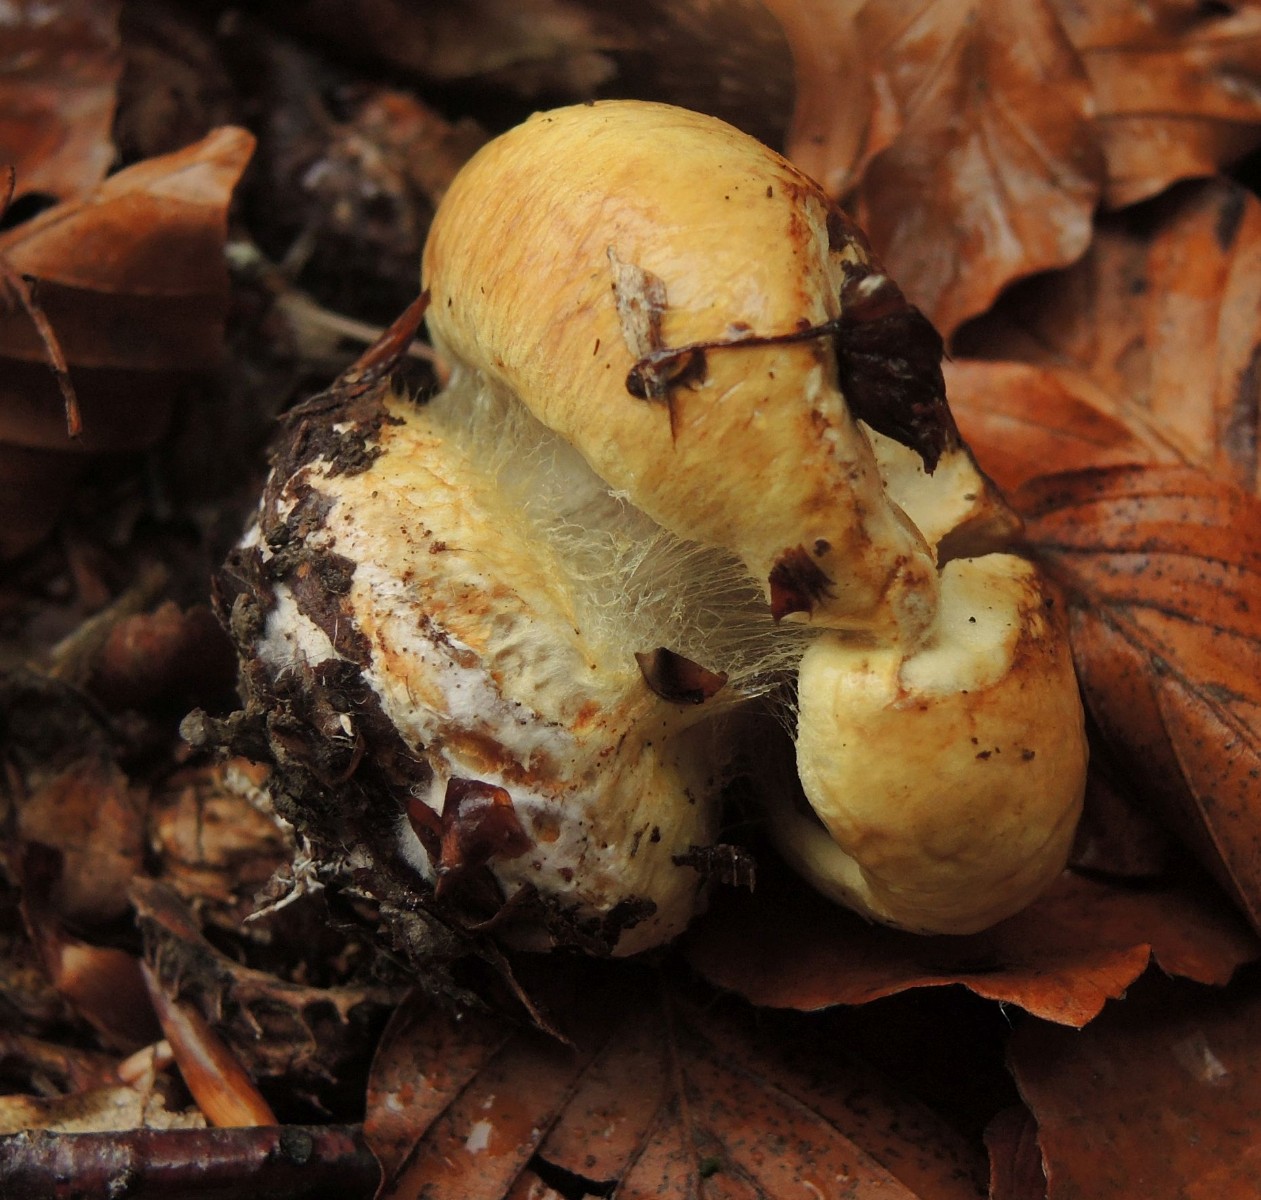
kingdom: Fungi
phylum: Basidiomycota
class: Agaricomycetes
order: Agaricales
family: Cortinariaceae
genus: Cortinarius
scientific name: Cortinarius koldingensis
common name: strågul slørhat
